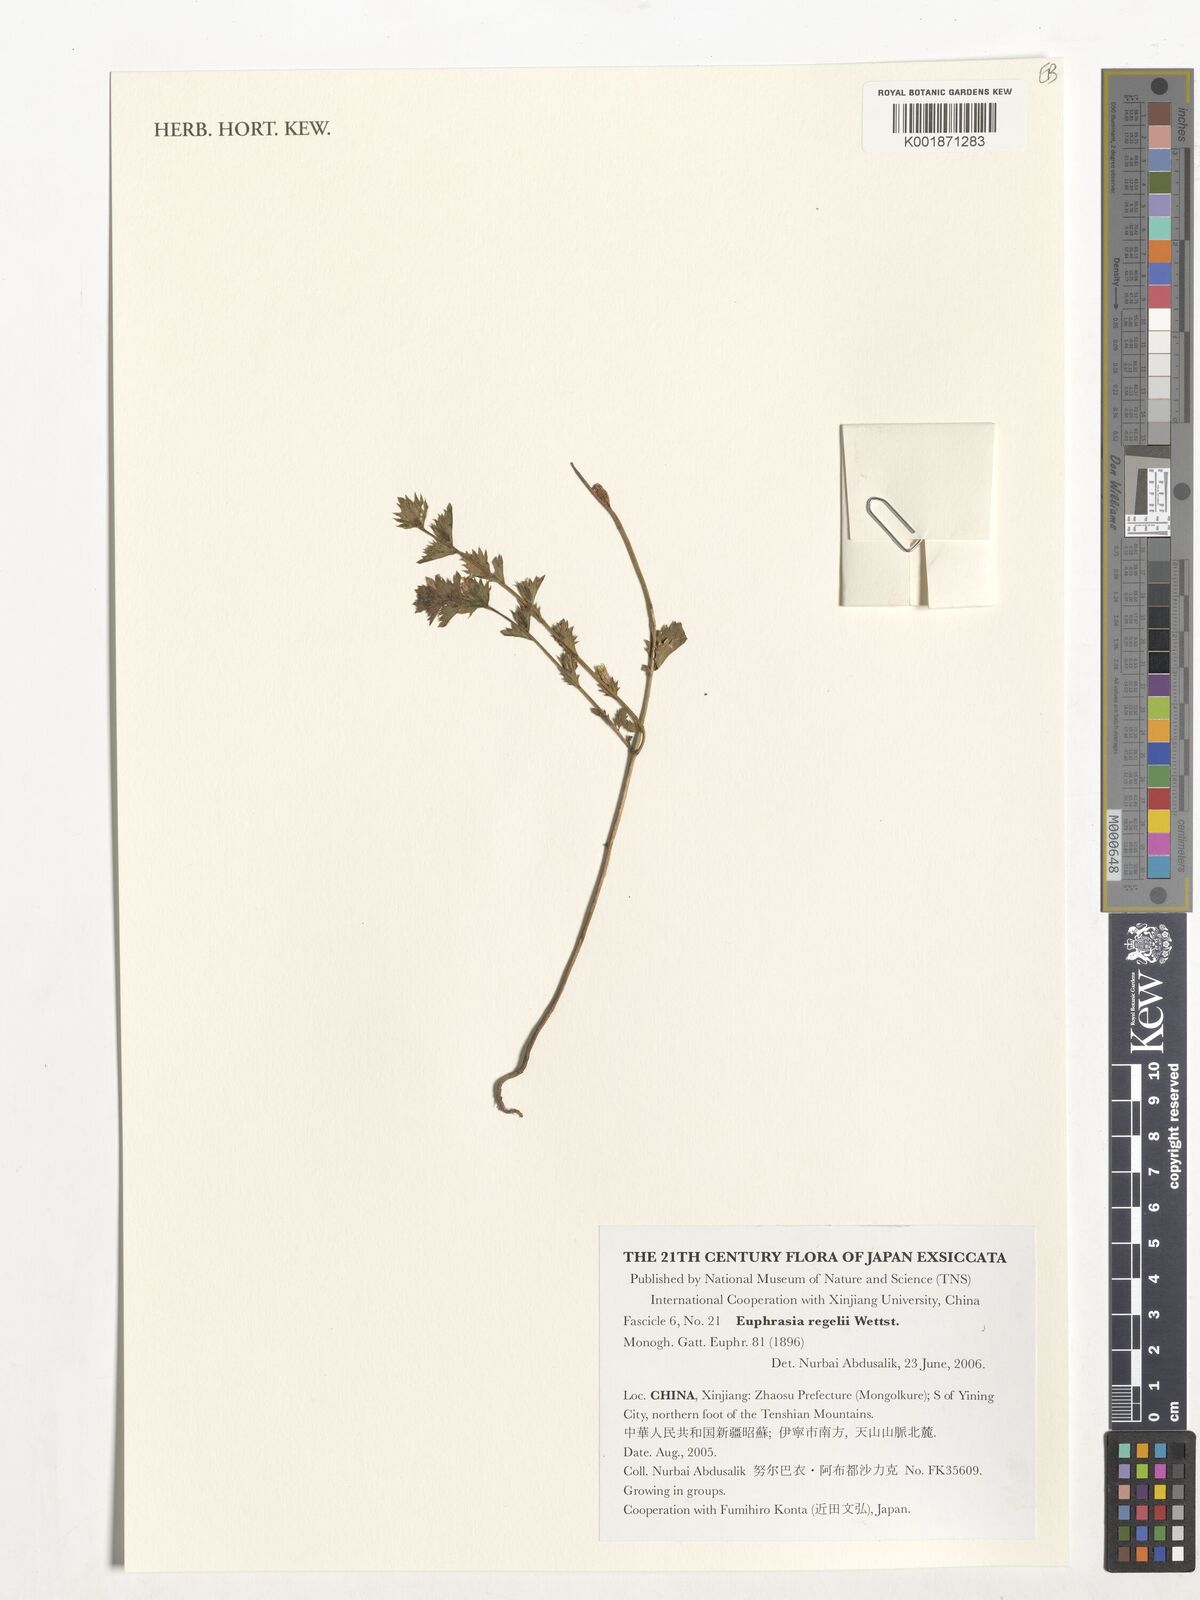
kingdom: Plantae
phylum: Tracheophyta
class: Magnoliopsida
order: Lamiales
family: Orobanchaceae
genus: Euphrasia
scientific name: Euphrasia regelii
